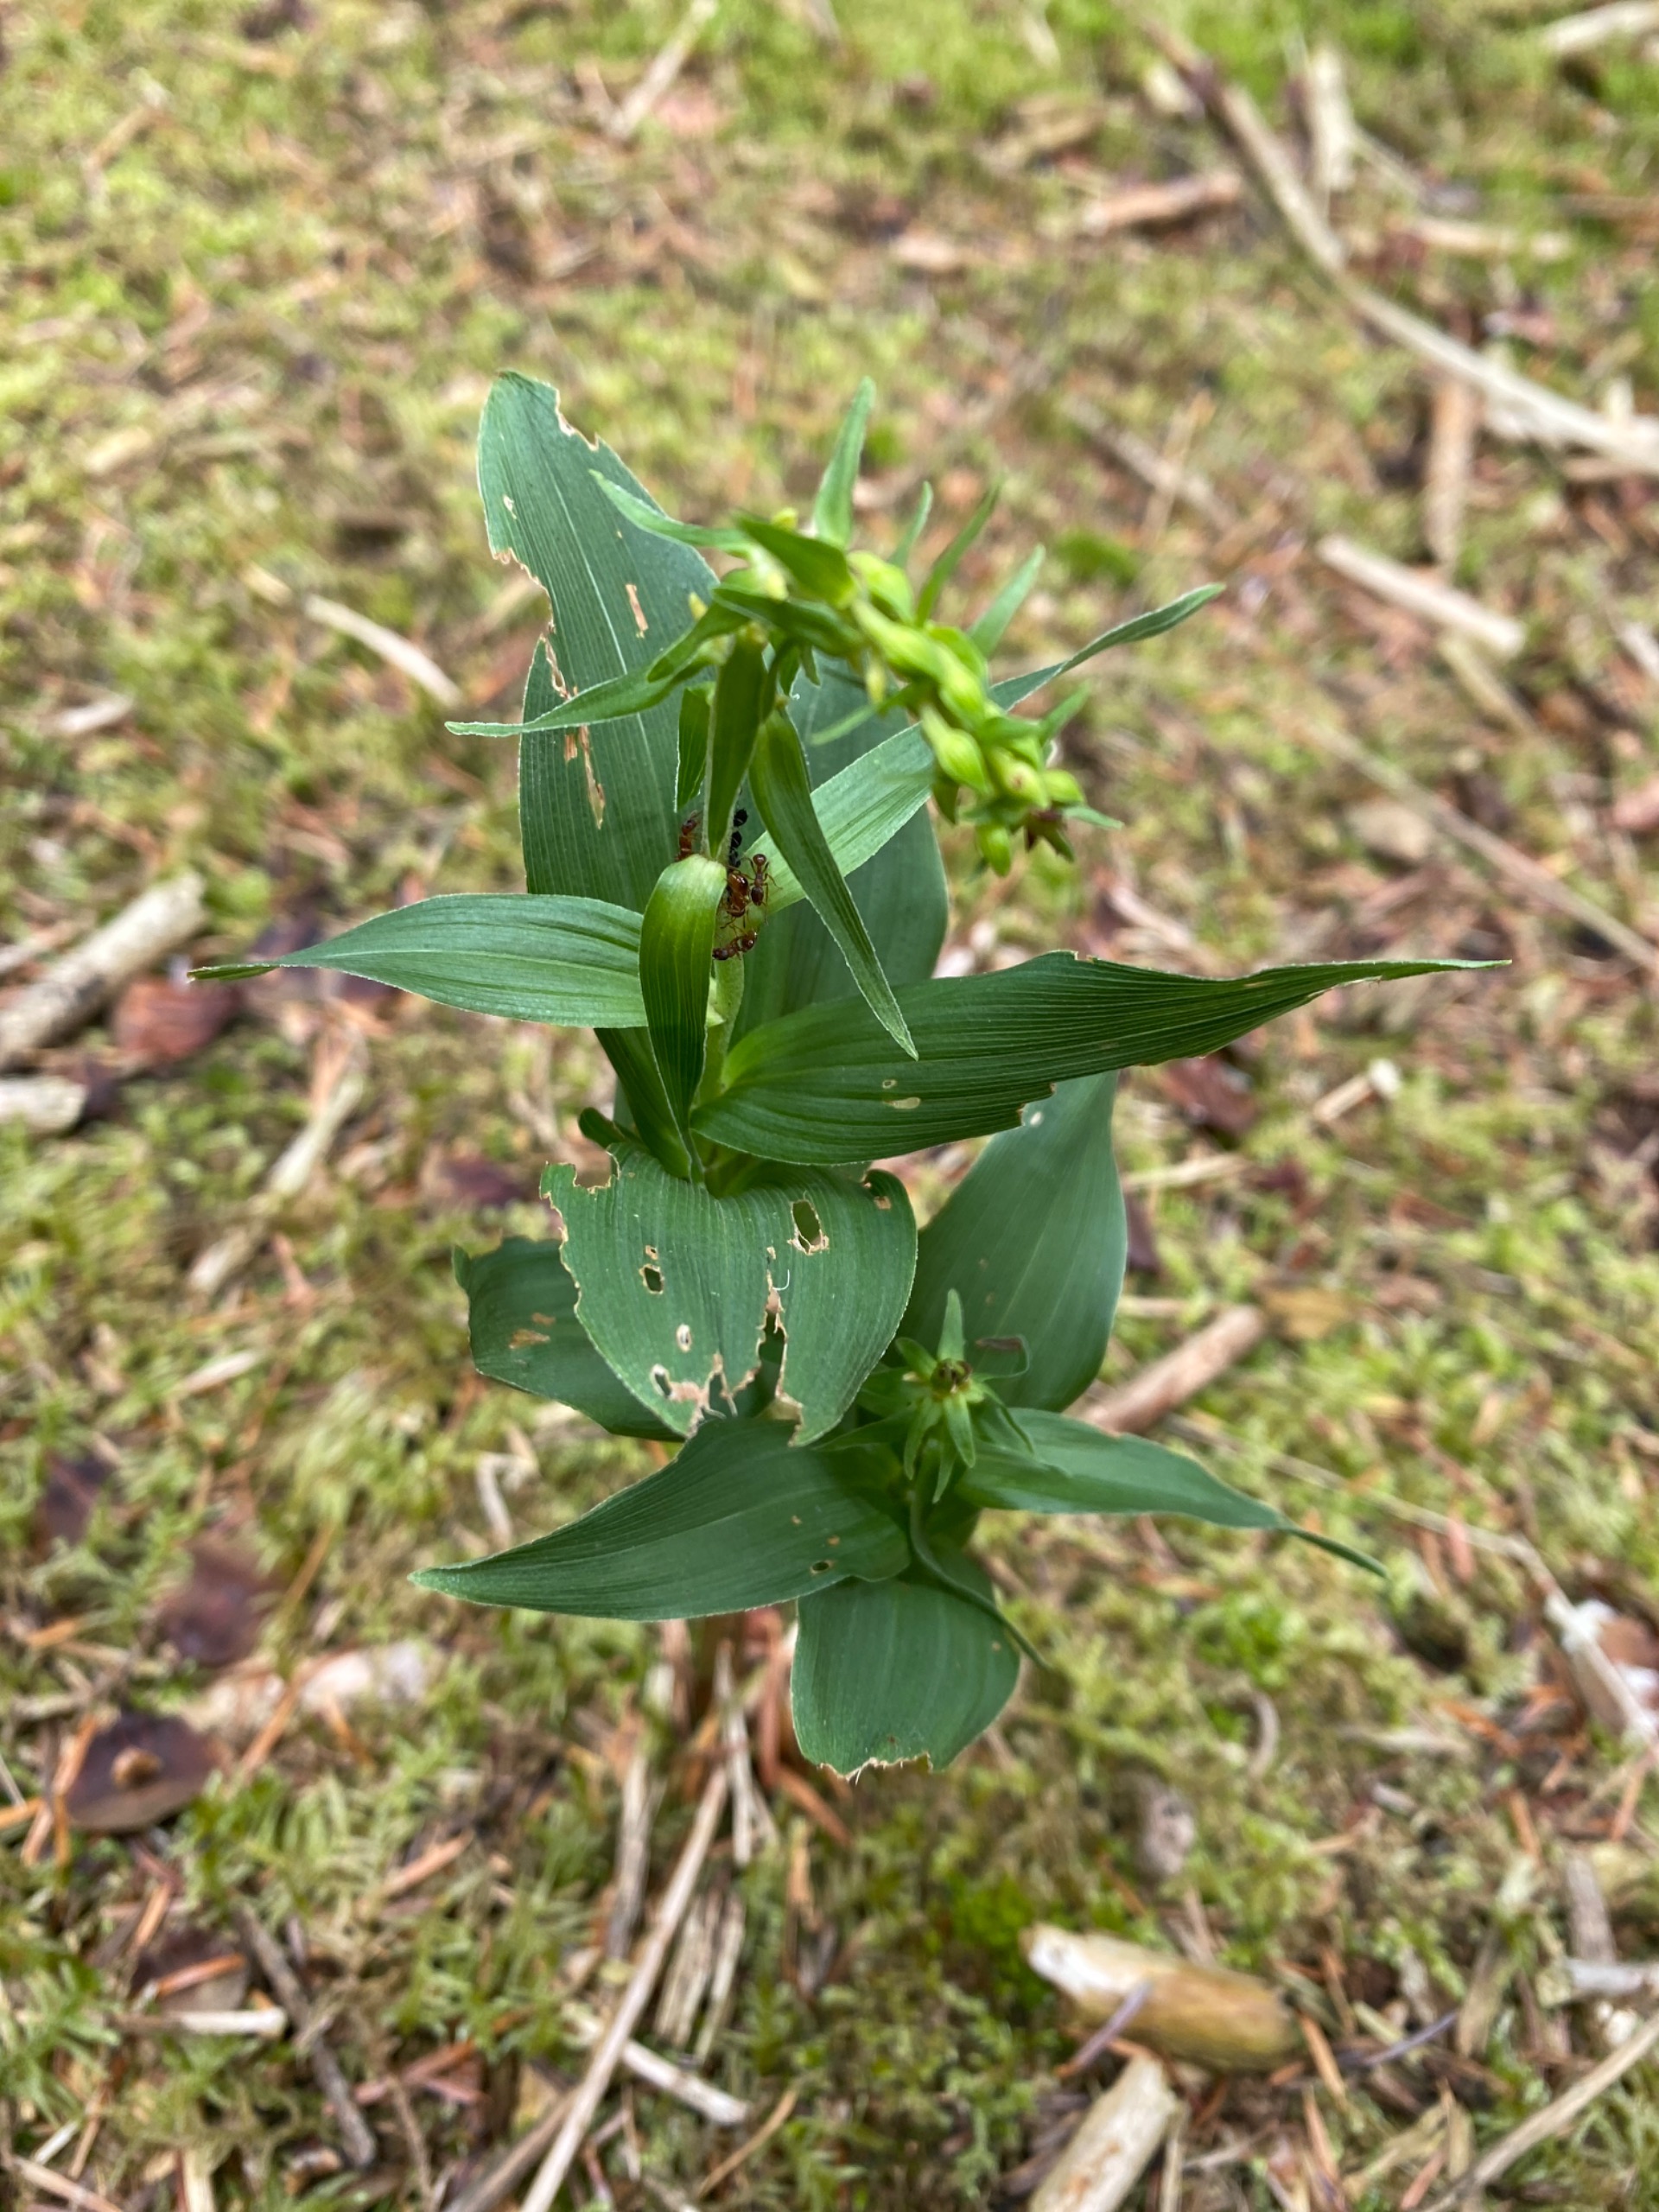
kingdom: Plantae
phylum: Tracheophyta
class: Liliopsida
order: Asparagales
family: Orchidaceae
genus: Epipactis
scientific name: Epipactis helleborine
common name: Skov-hullæbe
